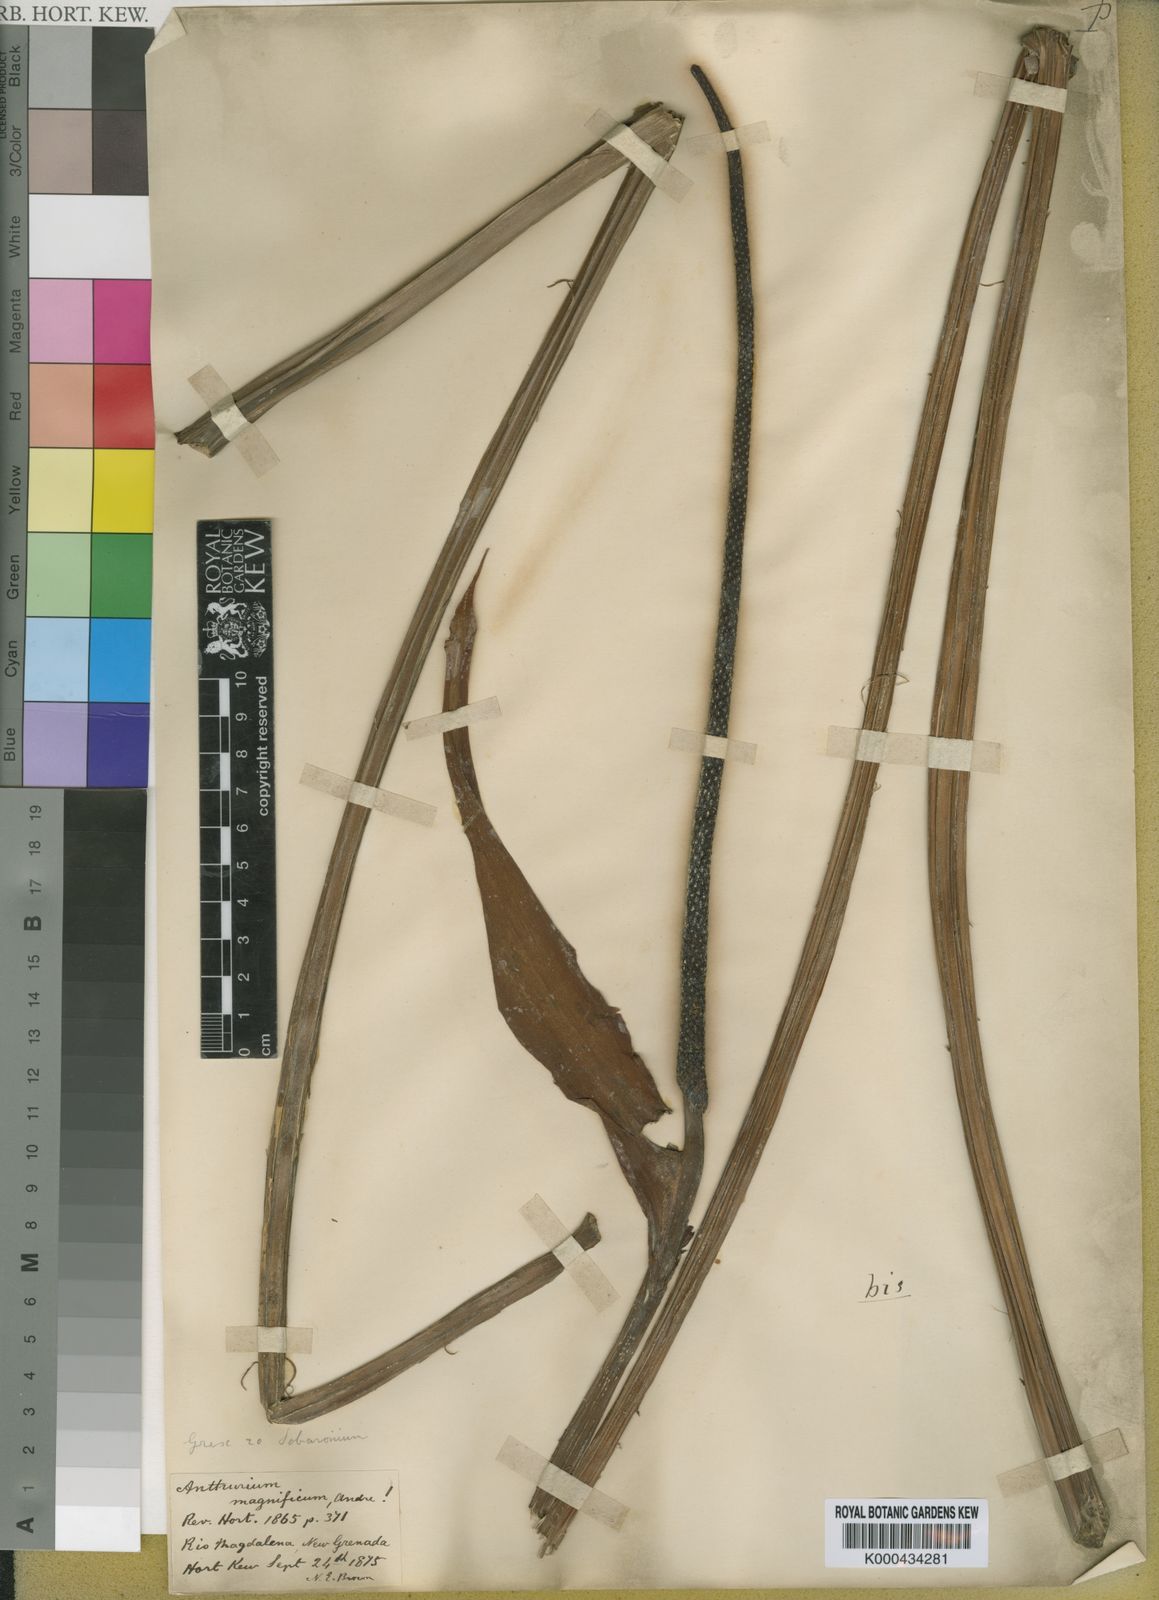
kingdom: Plantae
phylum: Tracheophyta
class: Liliopsida
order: Alismatales
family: Araceae
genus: Anthurium
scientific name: Anthurium magnificum
